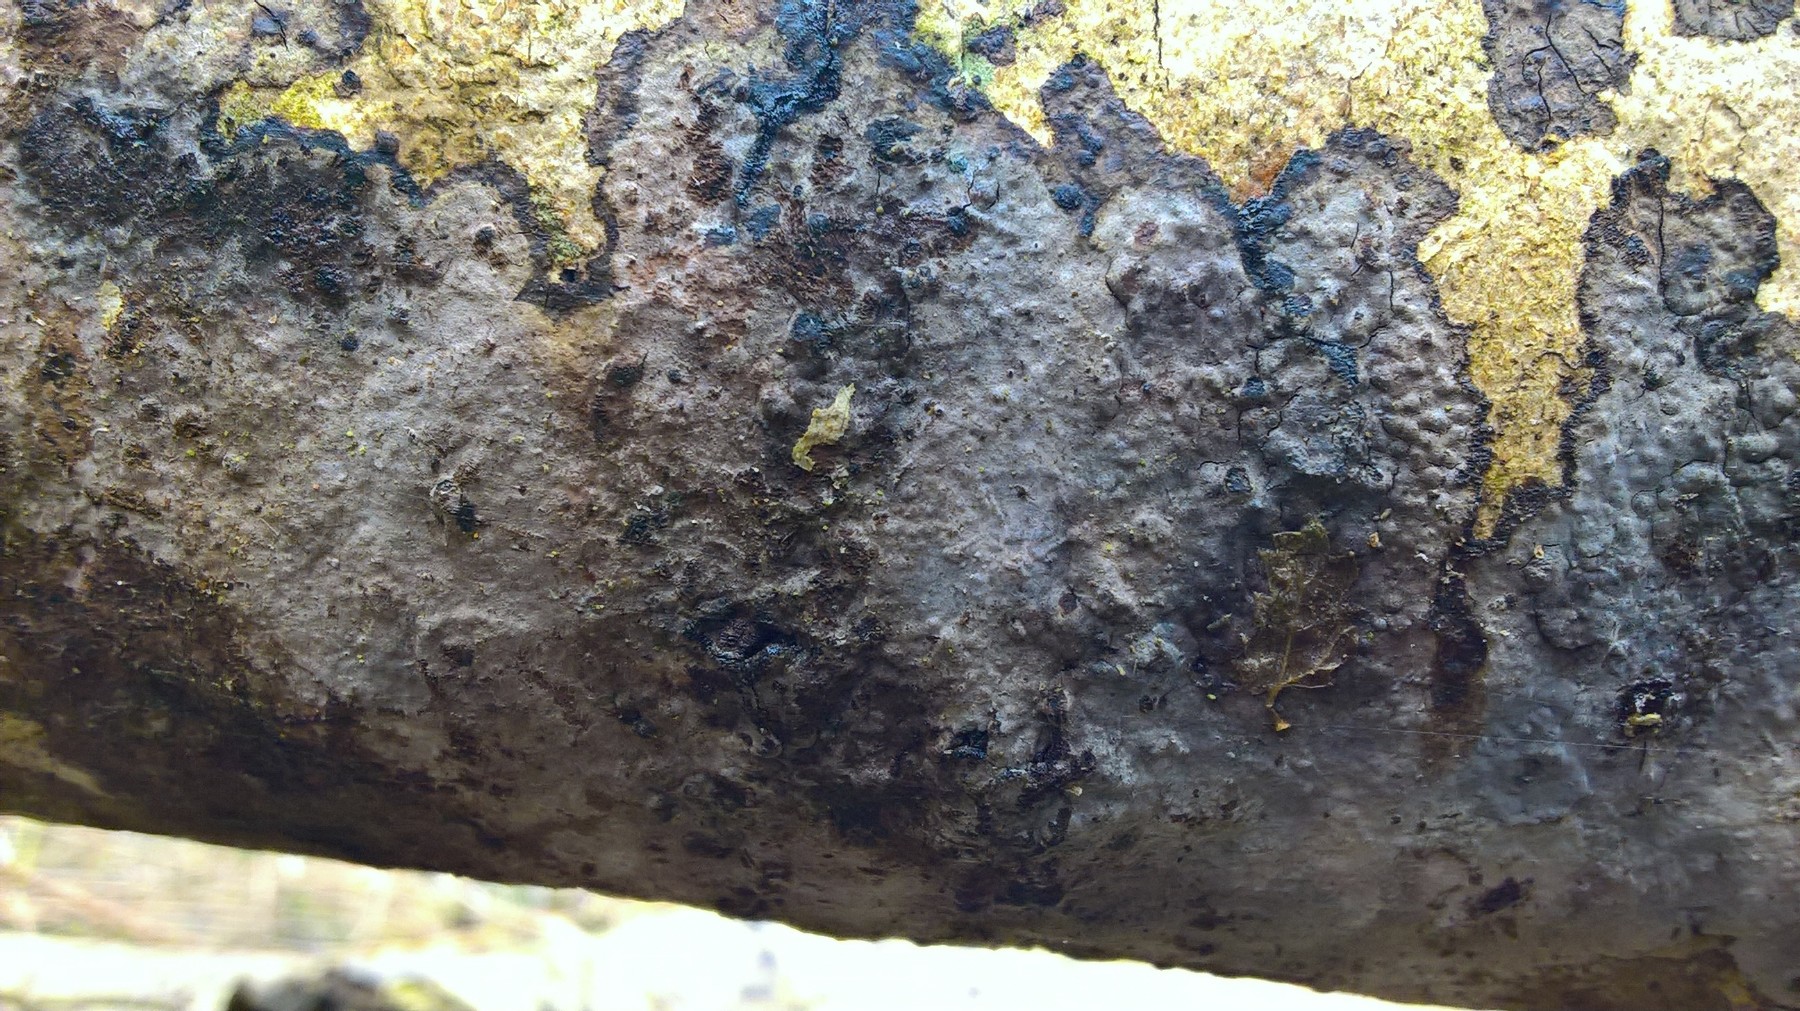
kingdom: Fungi
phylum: Basidiomycota
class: Agaricomycetes
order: Russulales
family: Peniophoraceae
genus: Peniophora
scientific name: Peniophora limitata
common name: mørkrandet voksskind
